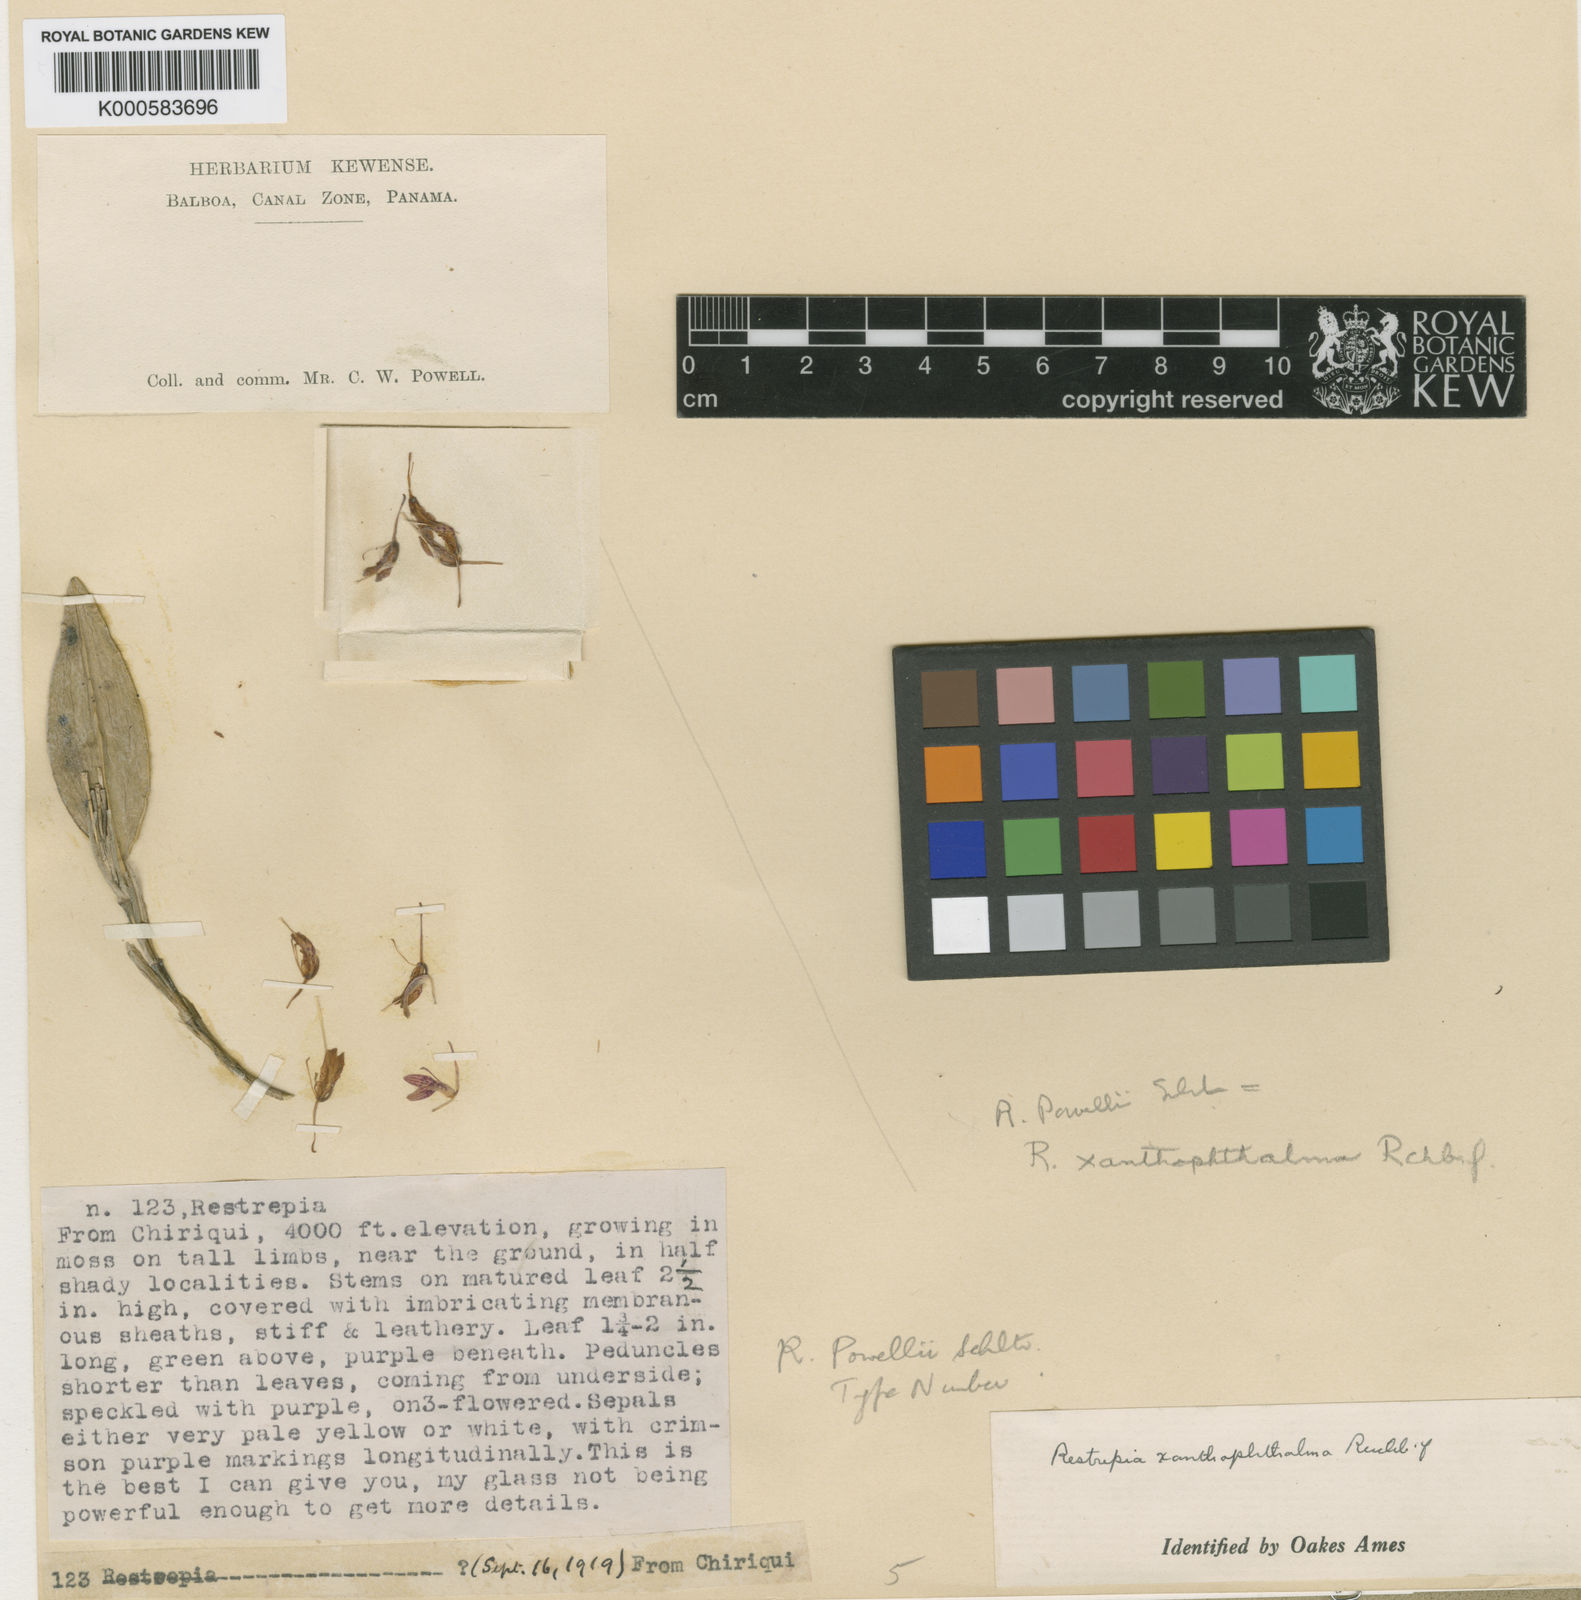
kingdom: Plantae
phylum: Tracheophyta
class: Liliopsida
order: Asparagales
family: Orchidaceae
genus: Restrepia
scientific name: Restrepia muscifera
